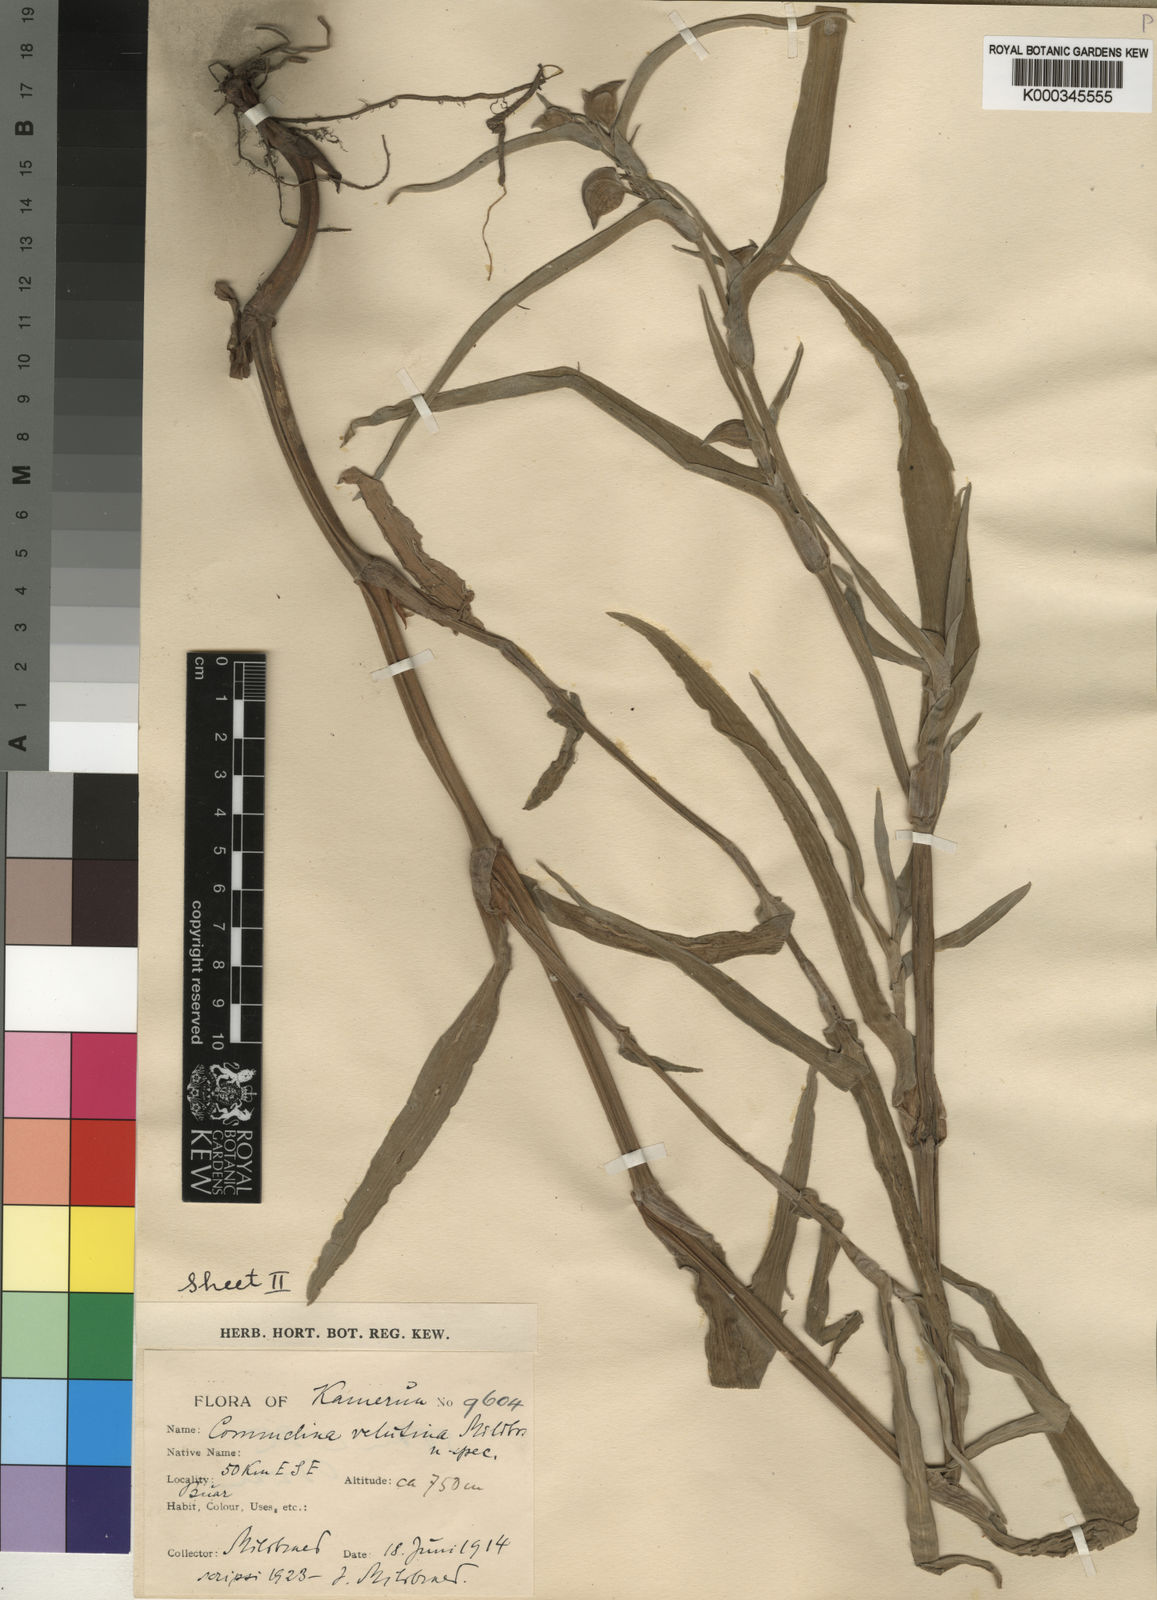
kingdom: Plantae
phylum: Tracheophyta
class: Liliopsida
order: Commelinales
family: Commelinaceae
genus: Commelina
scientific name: Commelina velutina
